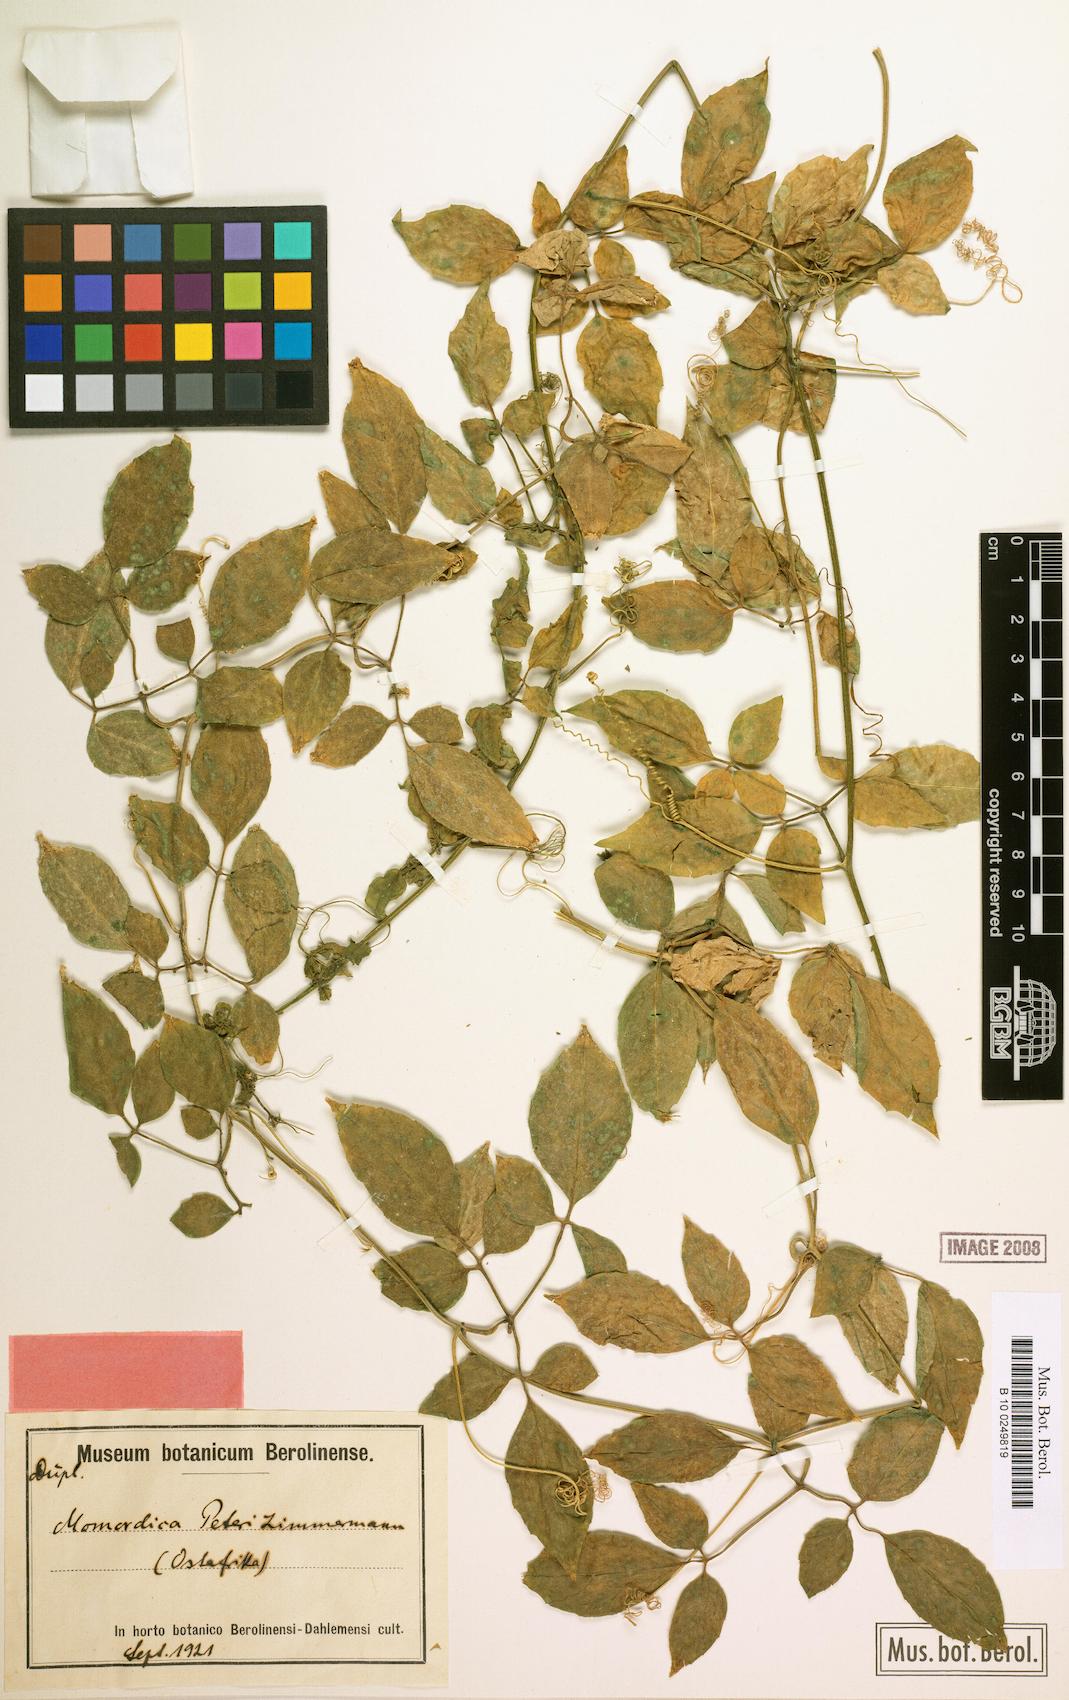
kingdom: Plantae
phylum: Tracheophyta
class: Magnoliopsida
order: Cucurbitales
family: Cucurbitaceae
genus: Momordica
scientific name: Momordica peteri
